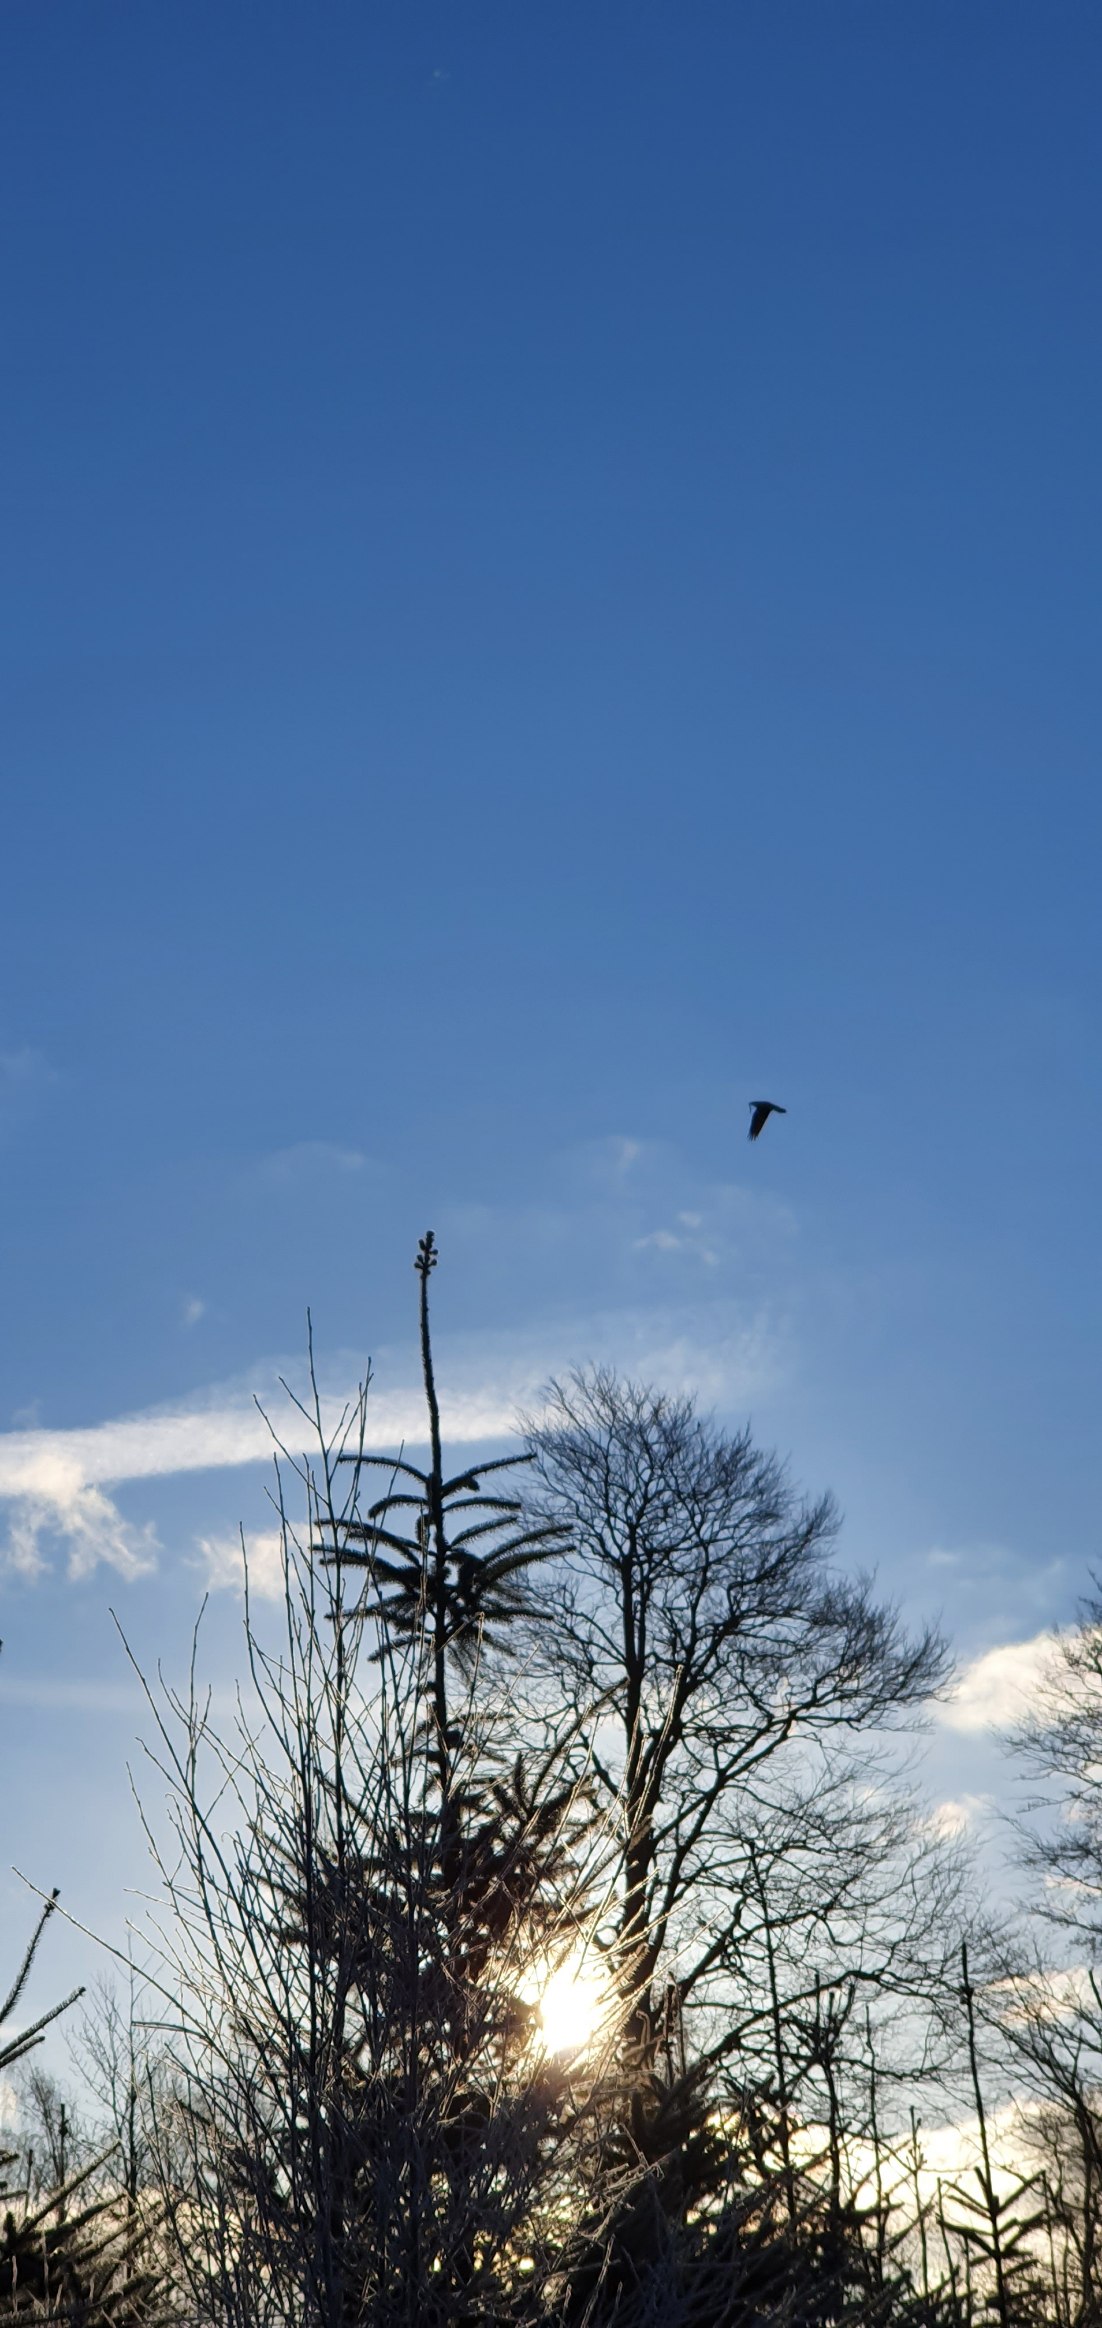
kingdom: Animalia
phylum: Chordata
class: Aves
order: Passeriformes
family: Corvidae
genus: Corvus
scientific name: Corvus corax
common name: Ravn
